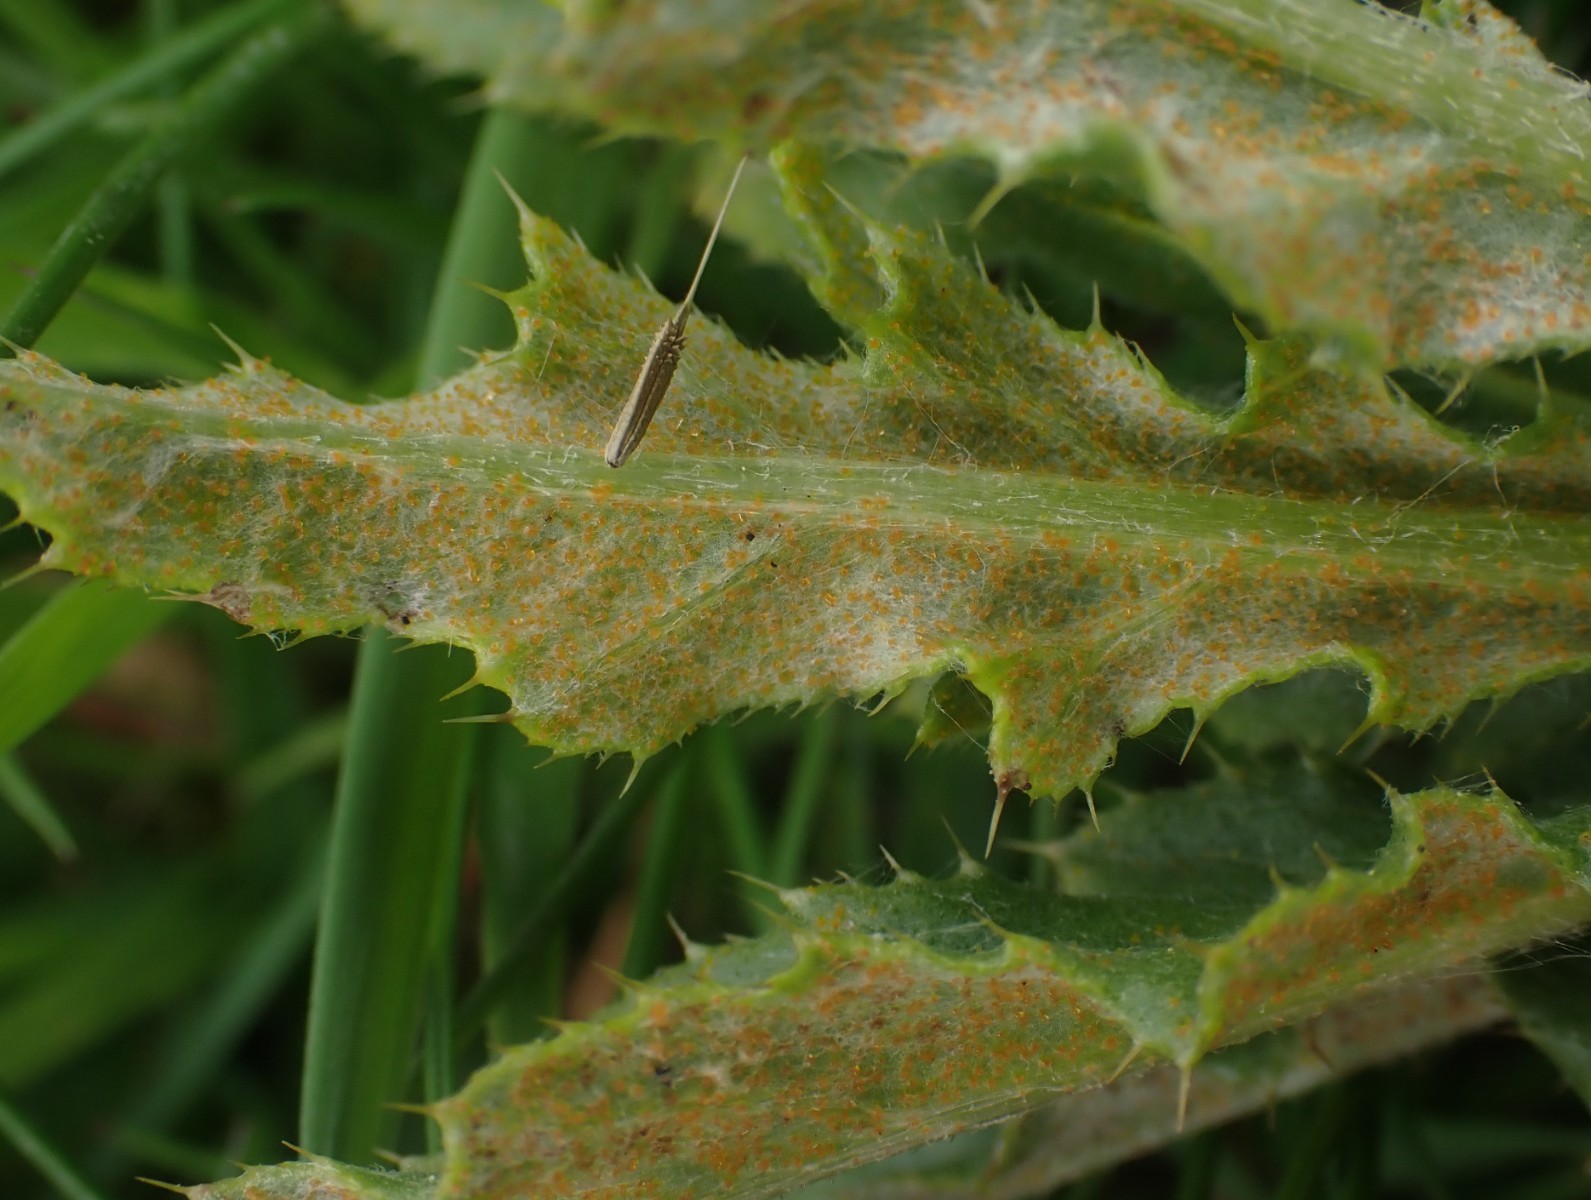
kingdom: Fungi
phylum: Basidiomycota
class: Pucciniomycetes
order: Pucciniales
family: Pucciniaceae
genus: Puccinia
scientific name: Puccinia suaveolens
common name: tidsel-tvecellerust
